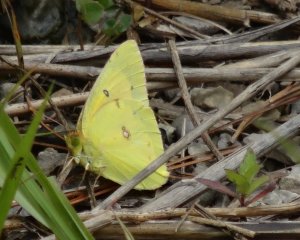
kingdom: Animalia
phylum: Arthropoda
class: Insecta
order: Lepidoptera
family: Pieridae
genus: Colias
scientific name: Colias eurytheme
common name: Orange Sulphur
